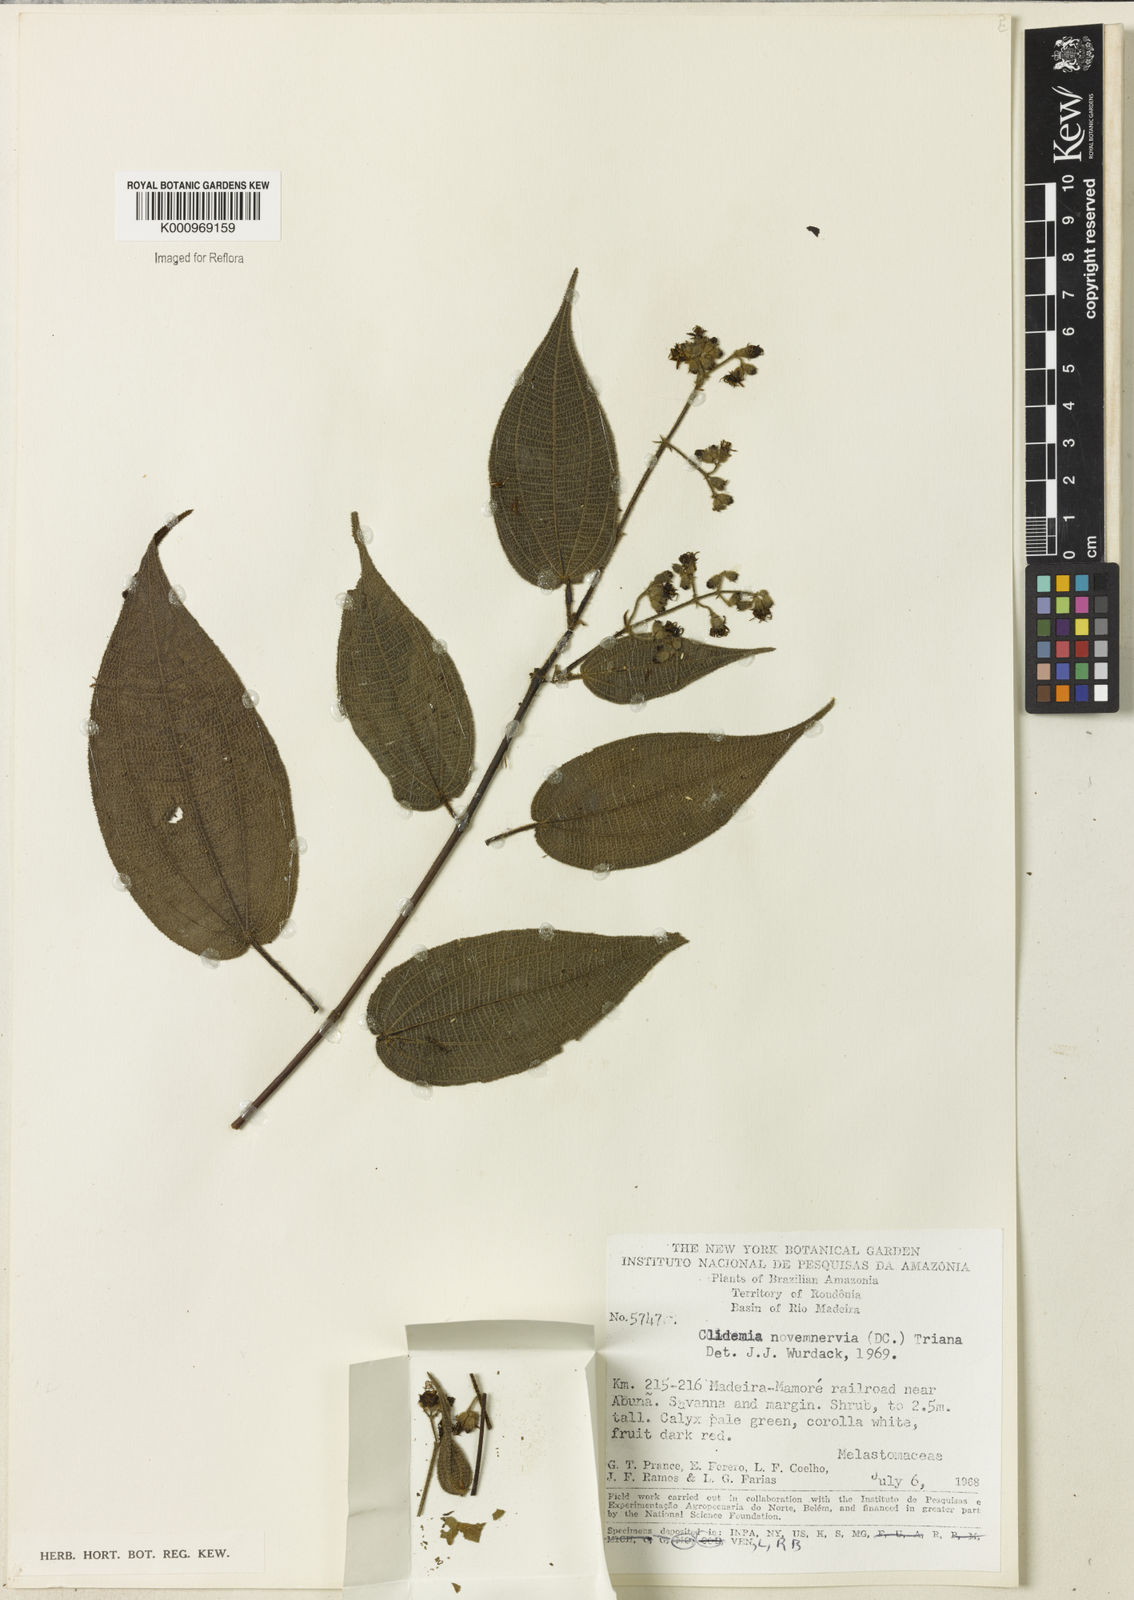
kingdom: Plantae
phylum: Tracheophyta
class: Magnoliopsida
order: Myrtales
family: Melastomataceae
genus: Miconia
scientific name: Miconia bullatifolia
